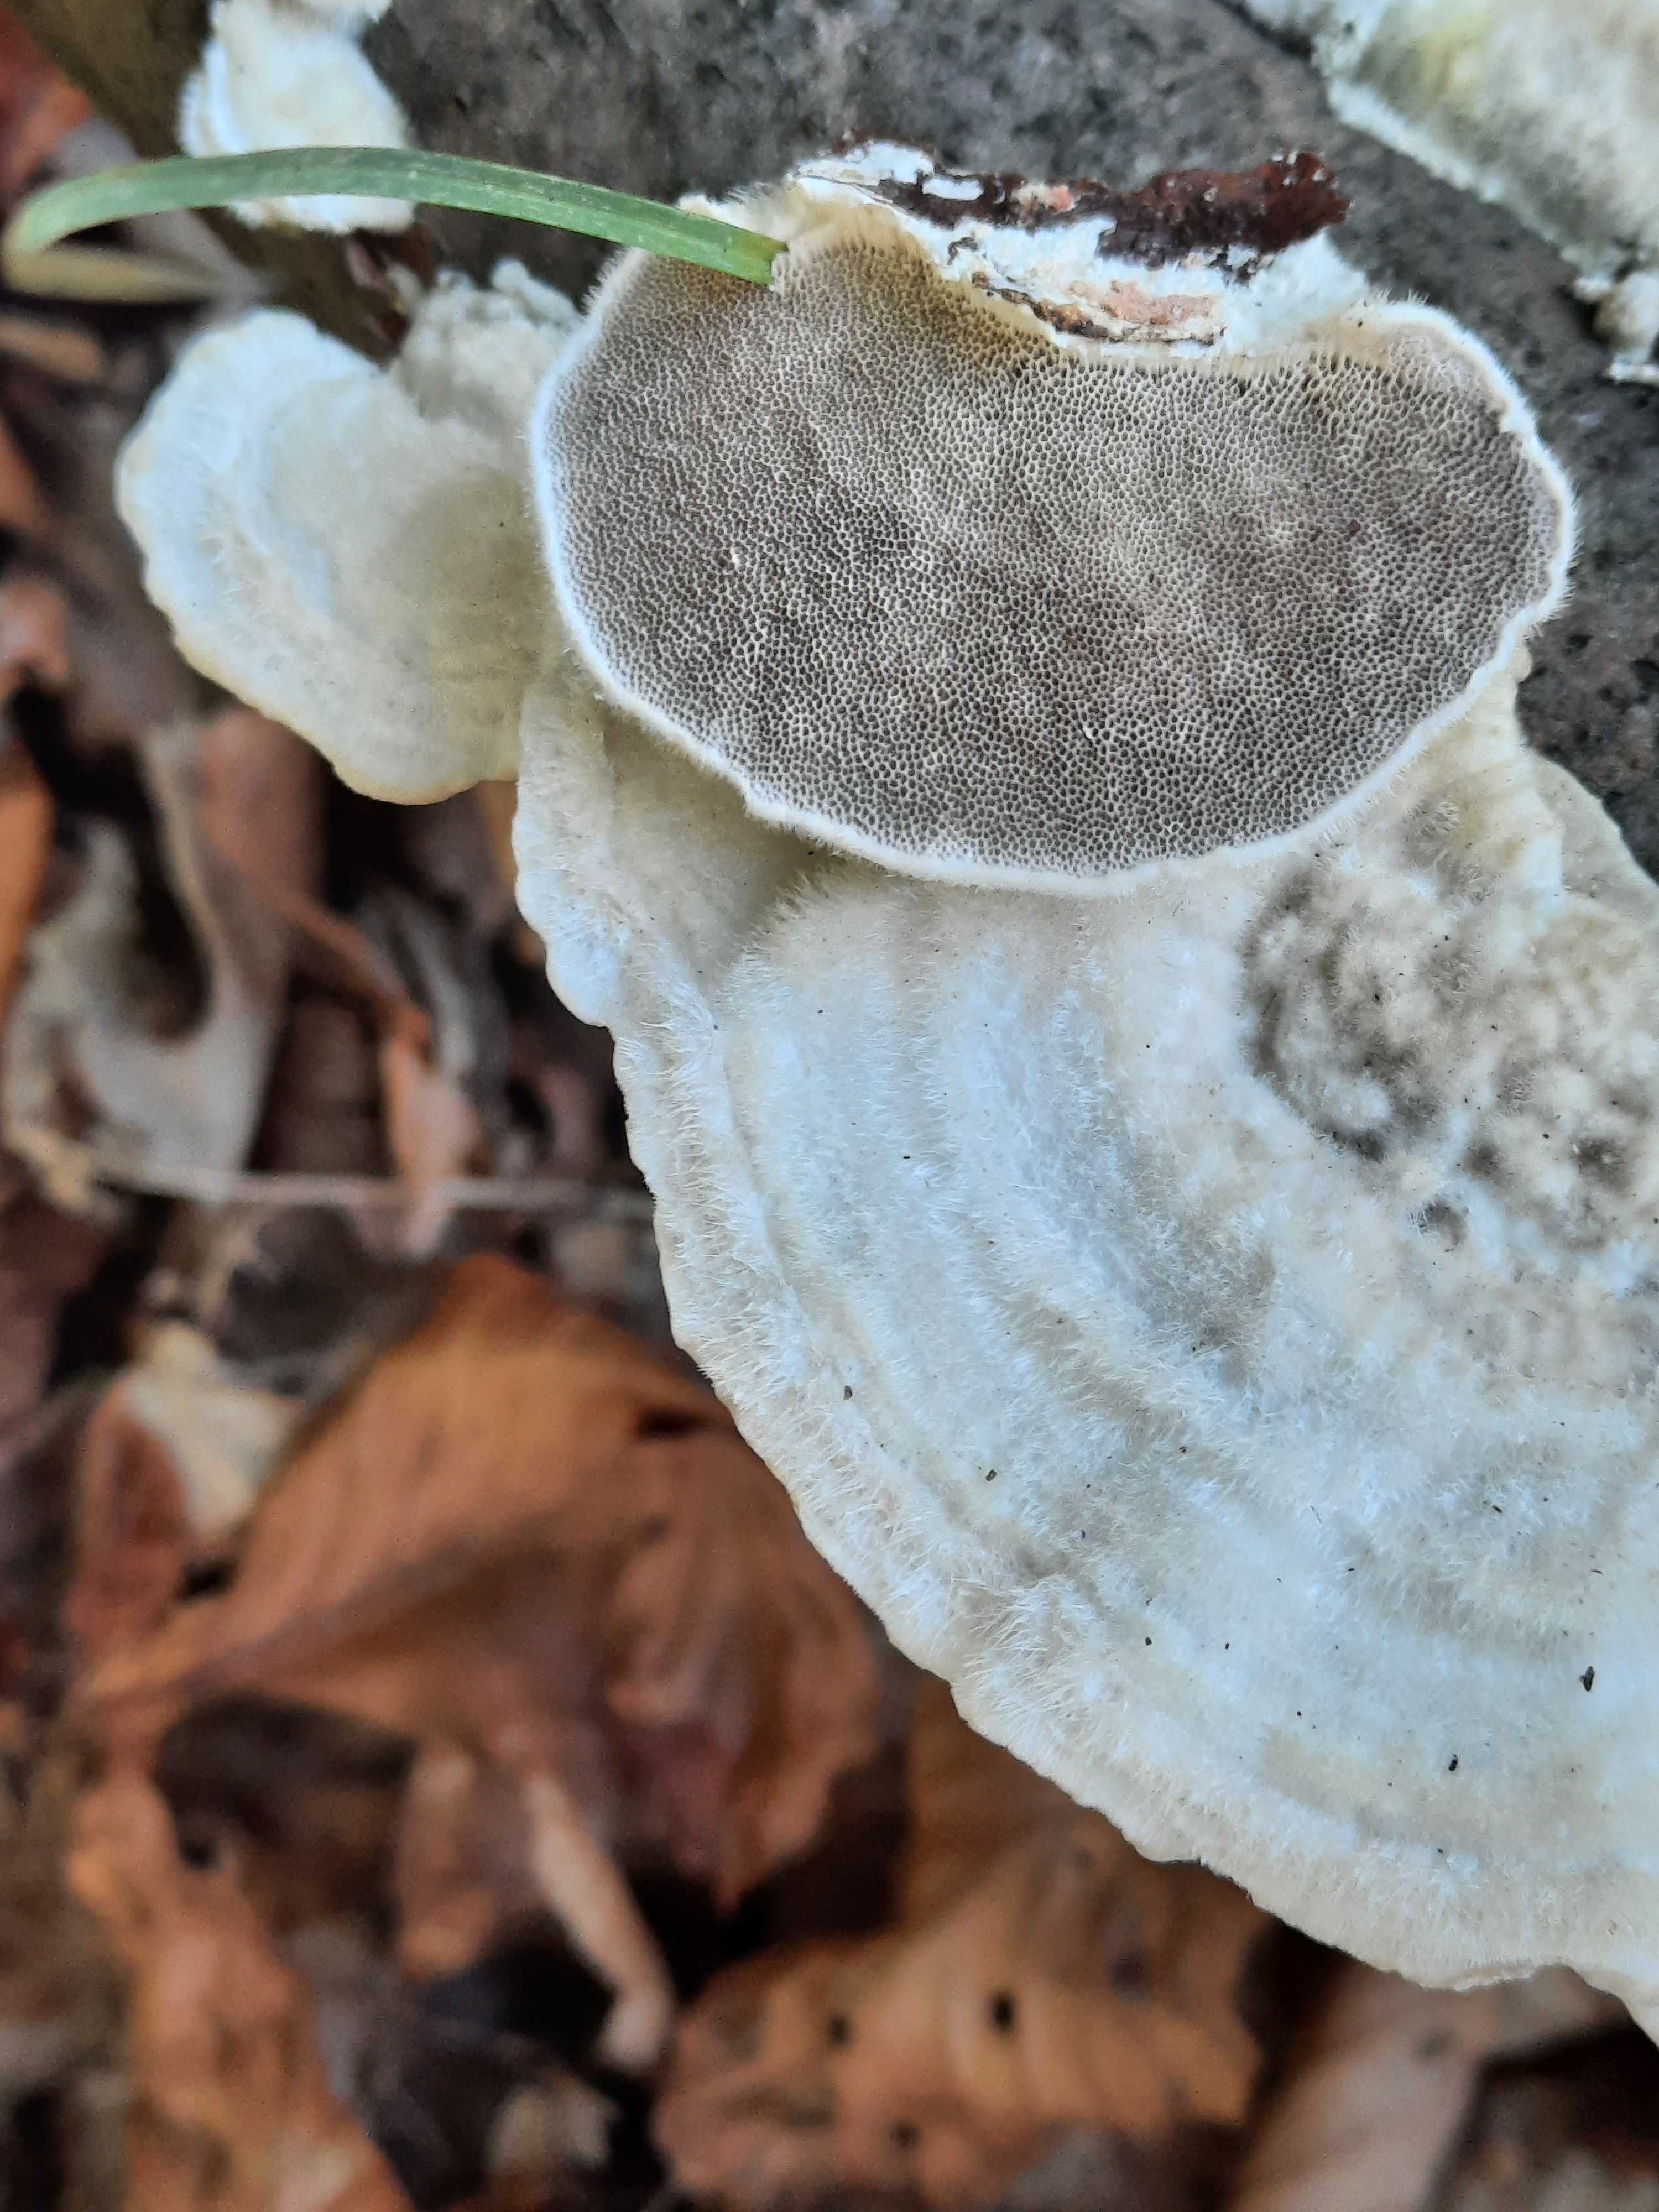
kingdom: Fungi
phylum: Basidiomycota
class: Agaricomycetes
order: Polyporales
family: Polyporaceae
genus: Trametes
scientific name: Trametes hirsuta
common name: håret læderporesvamp
